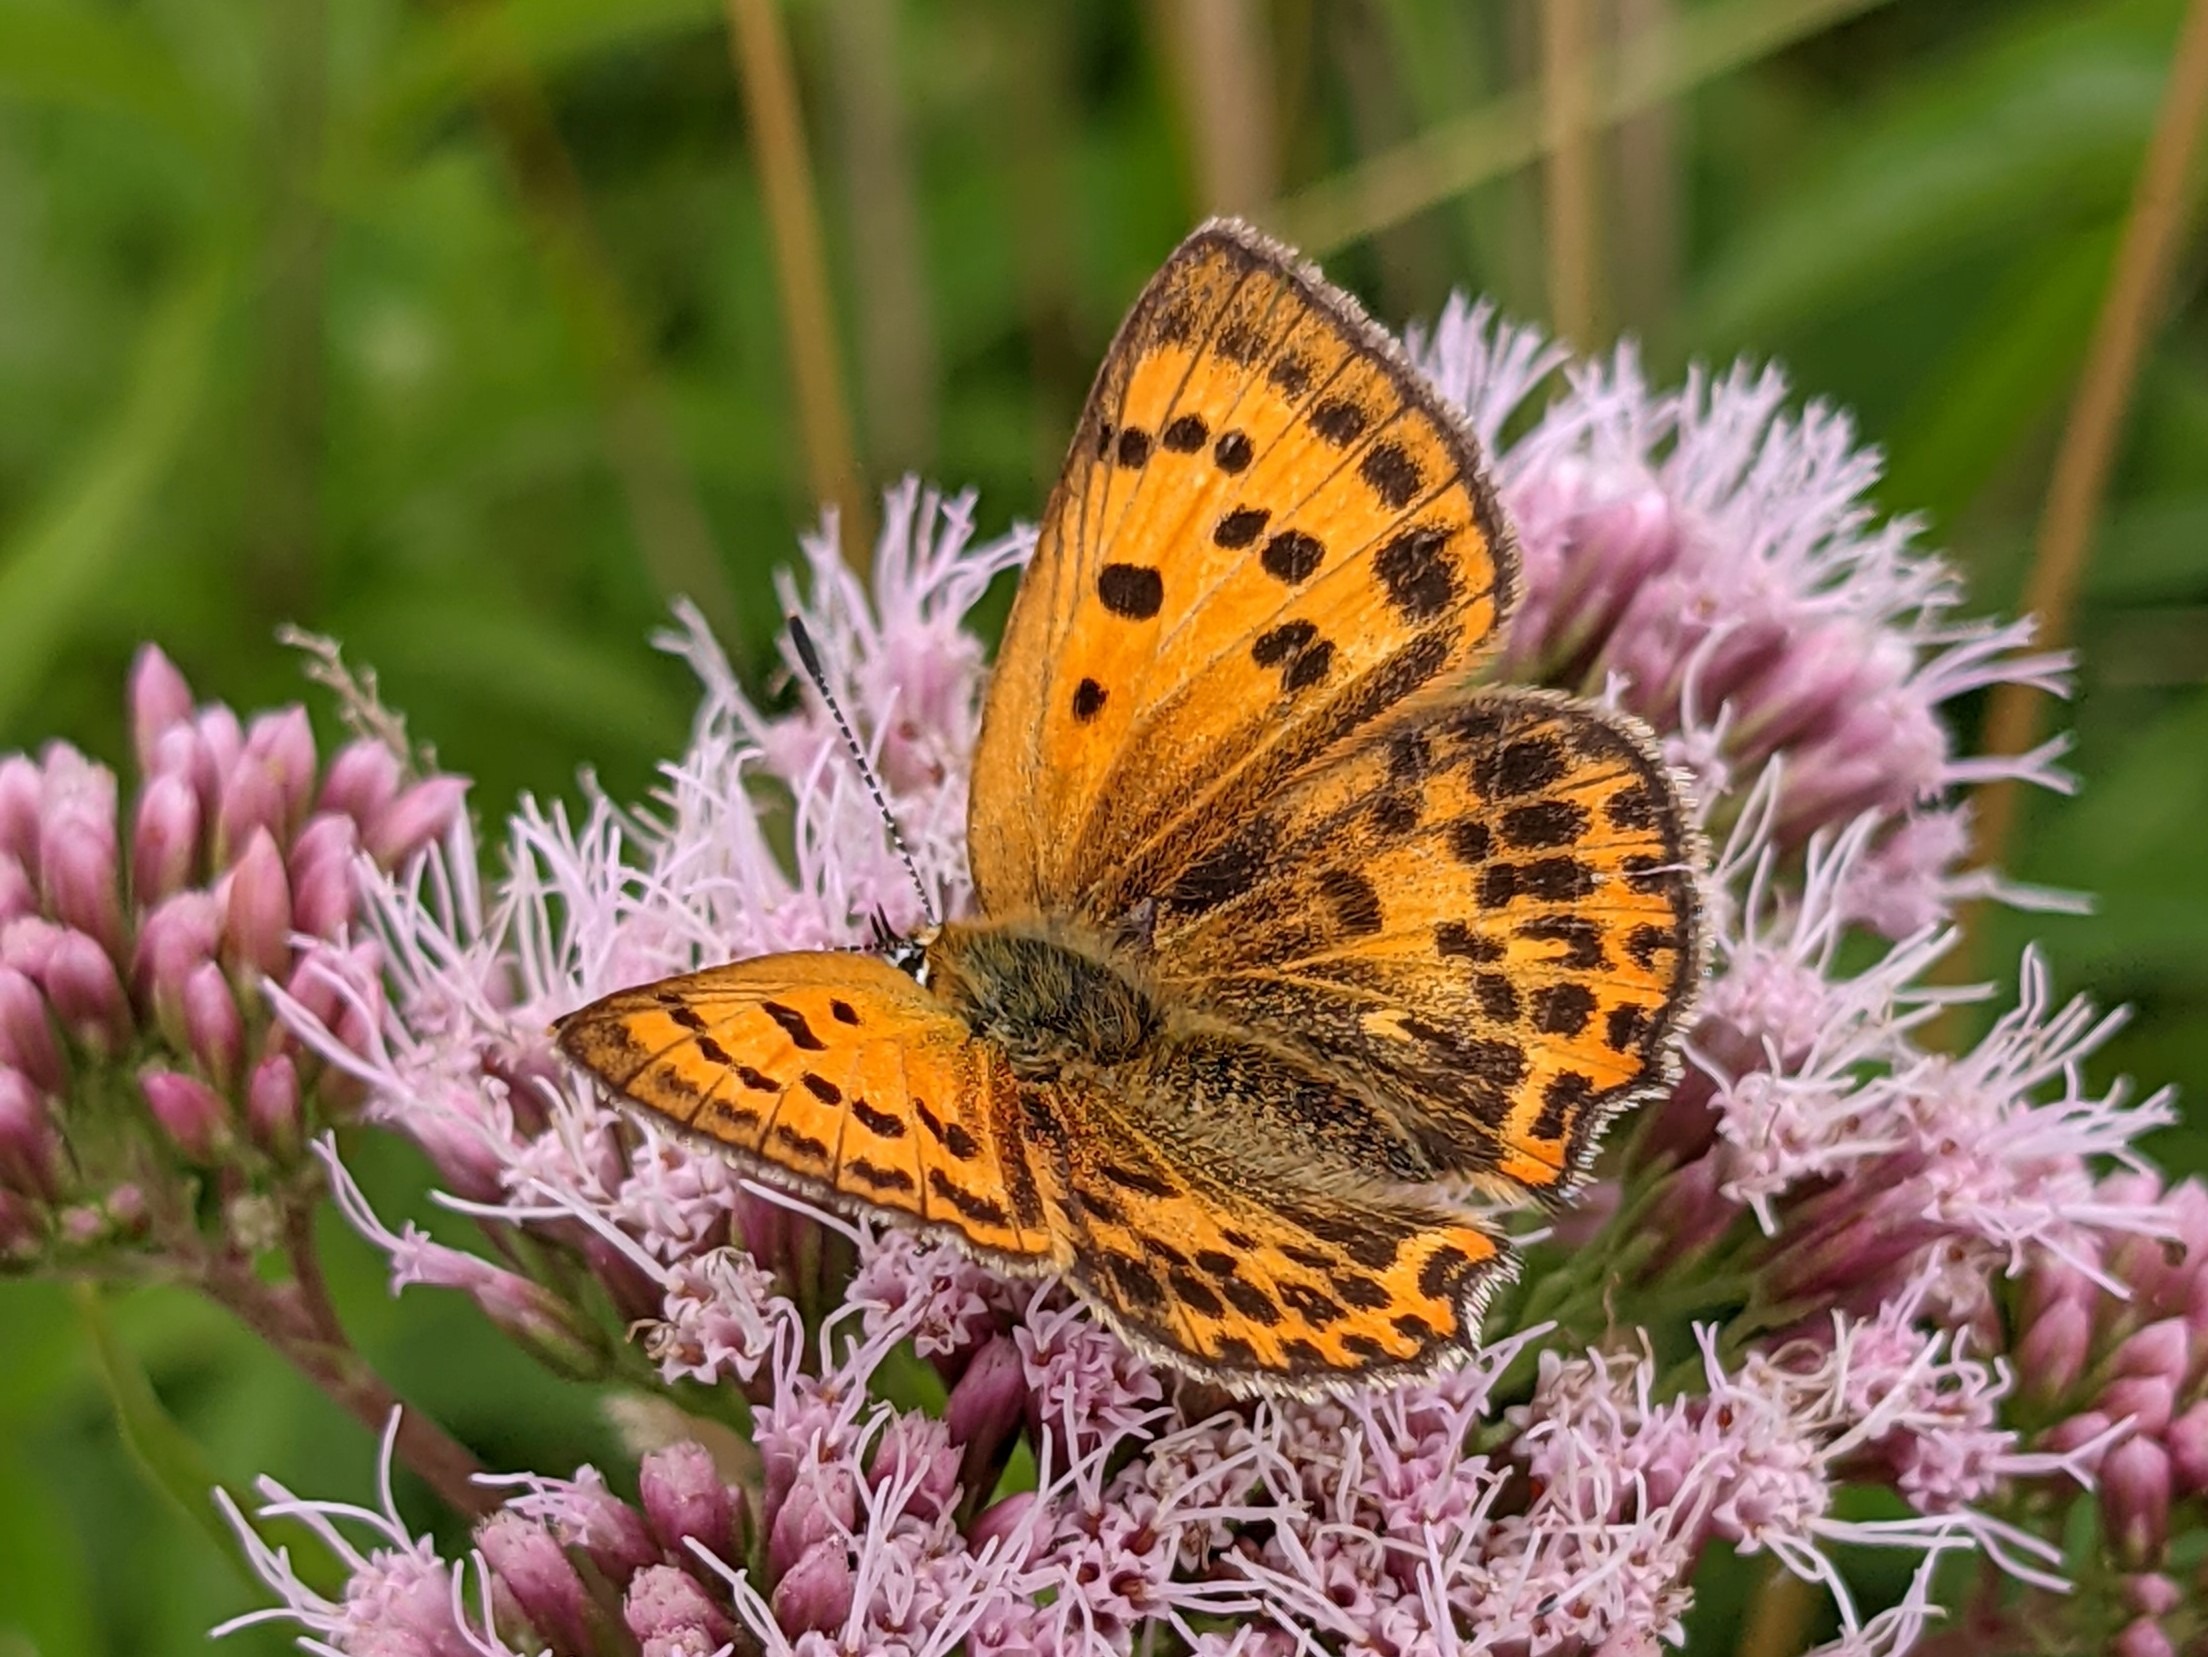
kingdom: Animalia
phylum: Arthropoda
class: Insecta
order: Lepidoptera
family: Lycaenidae
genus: Lycaena
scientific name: Lycaena virgaureae
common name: Dukatsommerfugl
